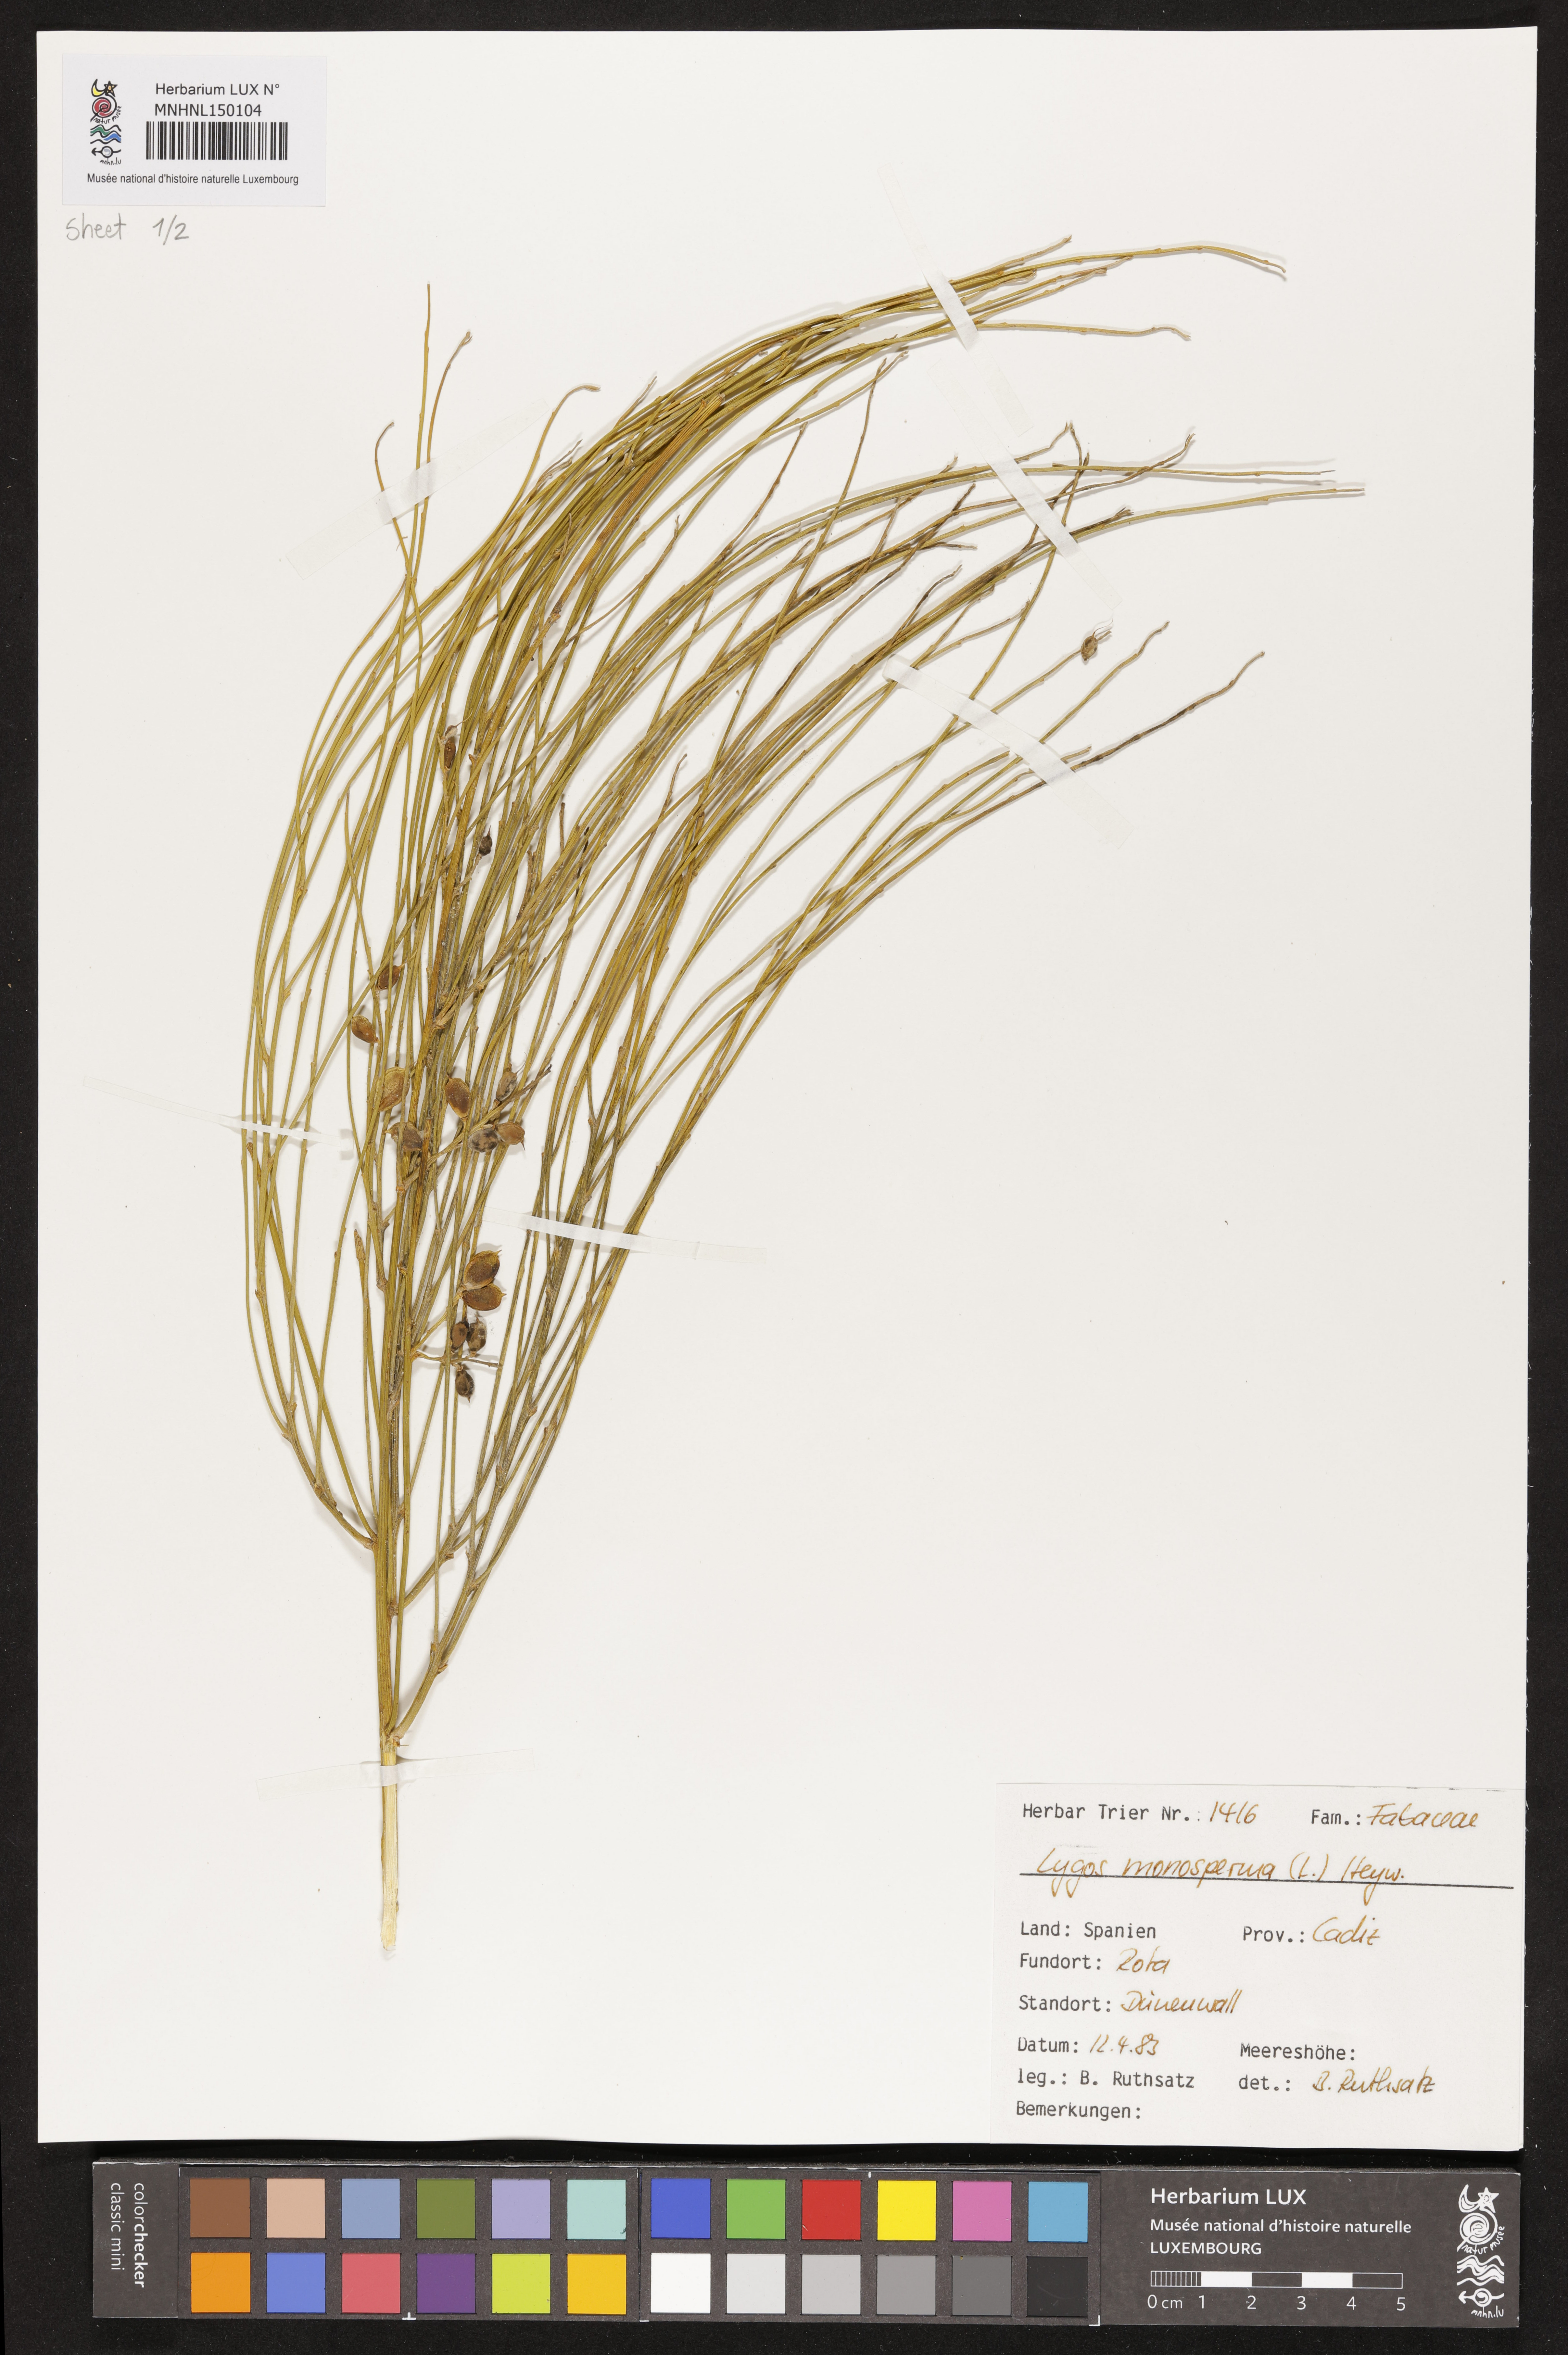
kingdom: Plantae
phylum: Tracheophyta
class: Magnoliopsida
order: Fabales
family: Fabaceae
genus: Retama
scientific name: Retama monosperma
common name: Bridal broom
